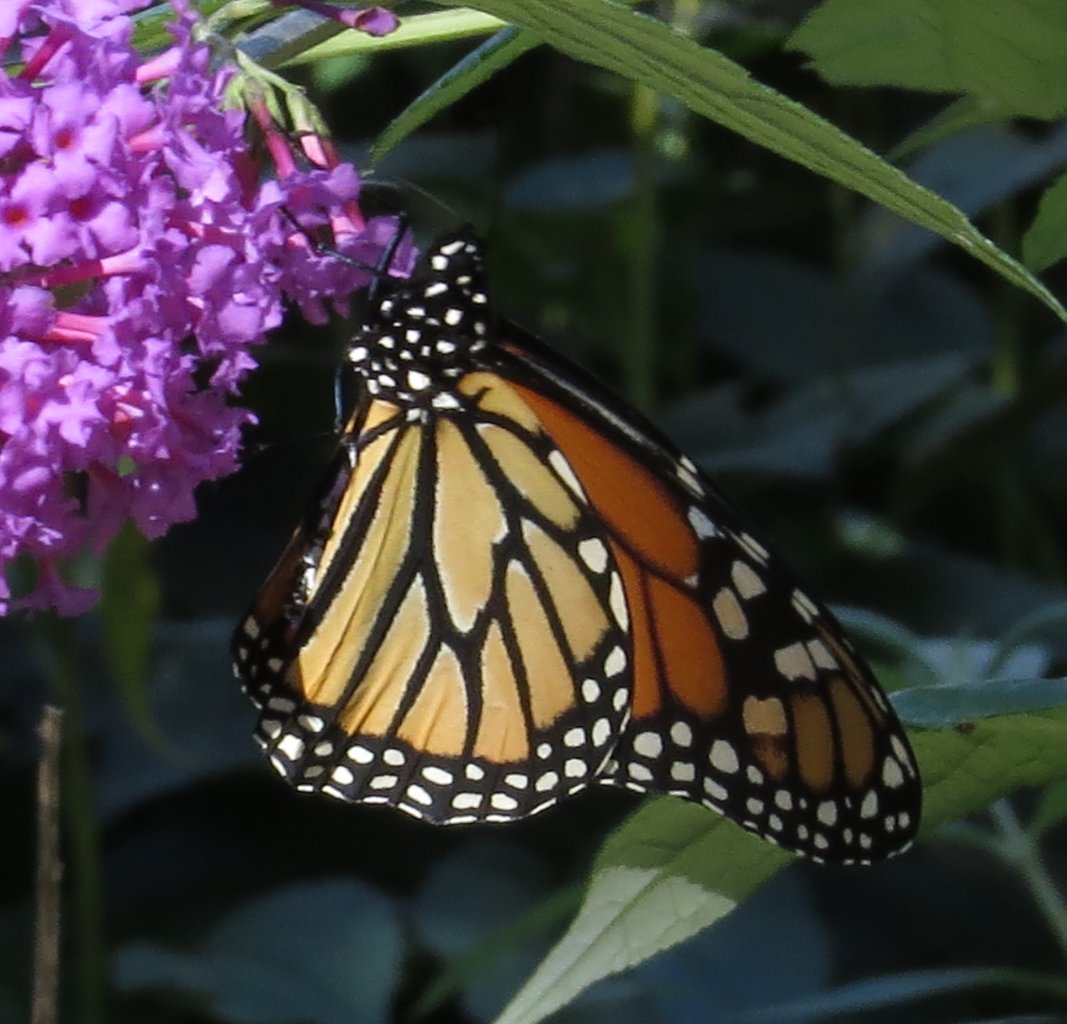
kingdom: Animalia
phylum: Arthropoda
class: Insecta
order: Lepidoptera
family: Nymphalidae
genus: Danaus
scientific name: Danaus plexippus
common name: Monarch
